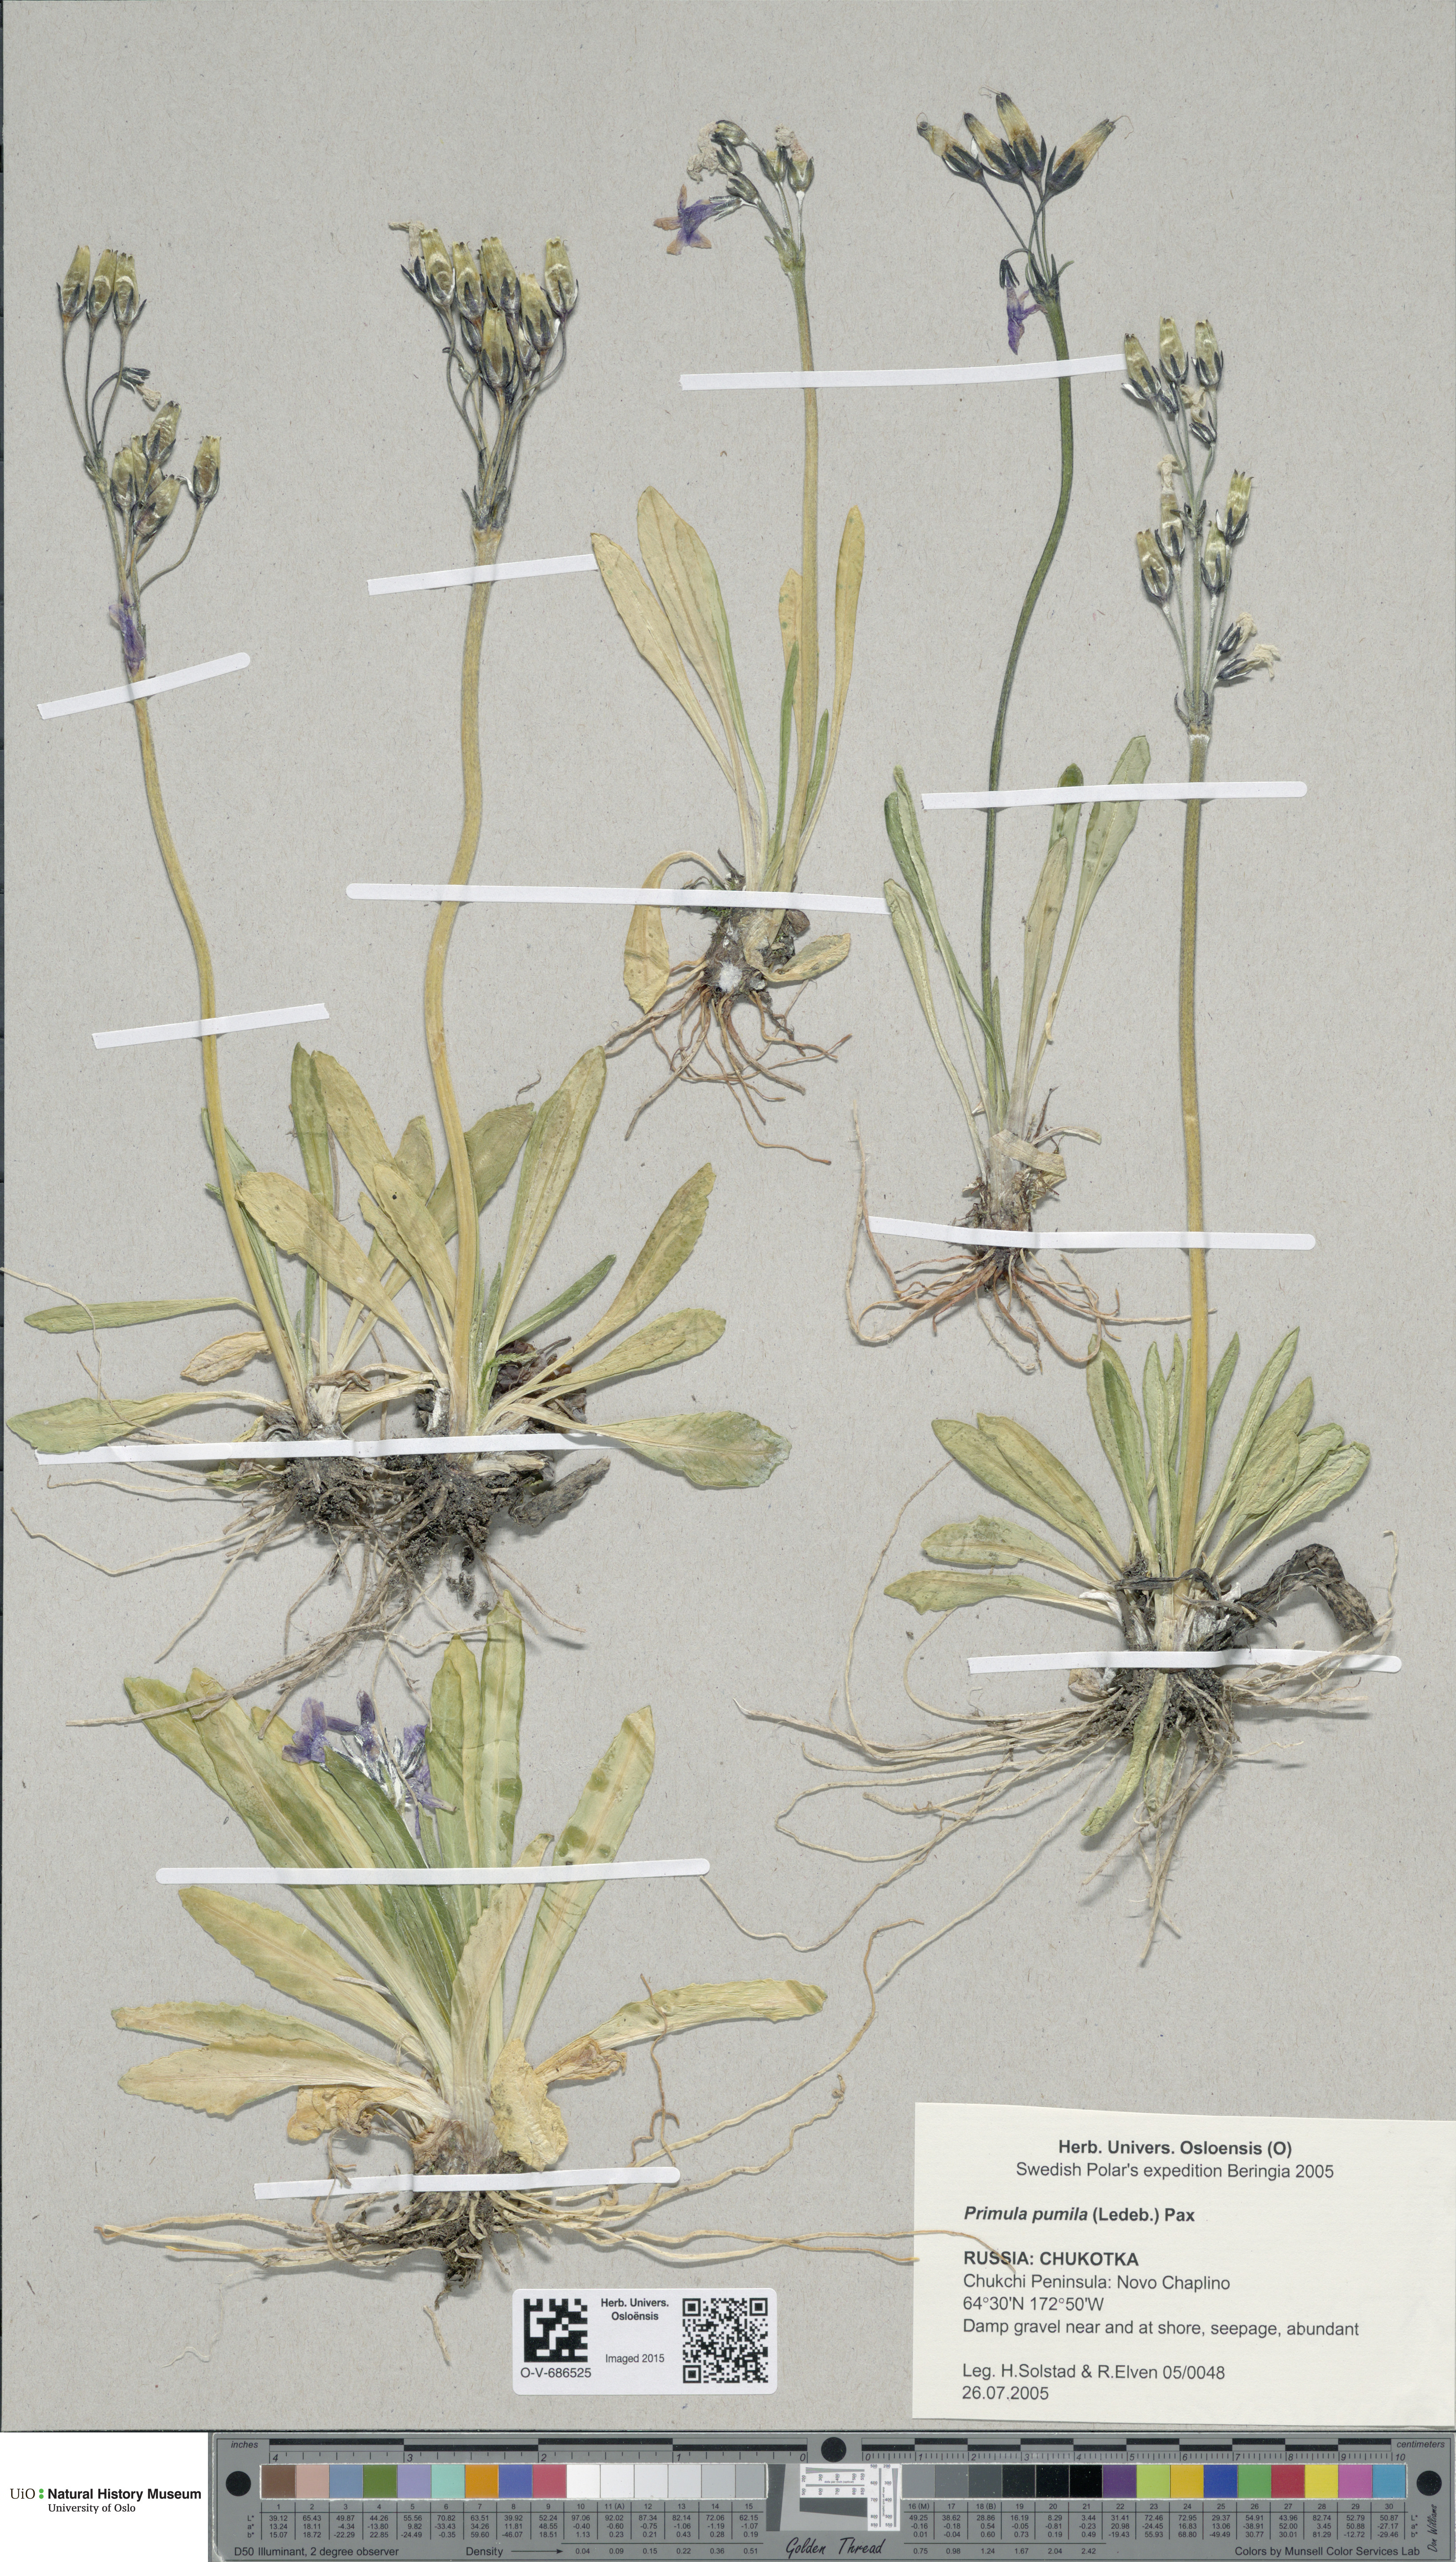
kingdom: Plantae
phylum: Tracheophyta
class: Magnoliopsida
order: Ericales
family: Primulaceae
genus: Primula
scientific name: Primula eximia
